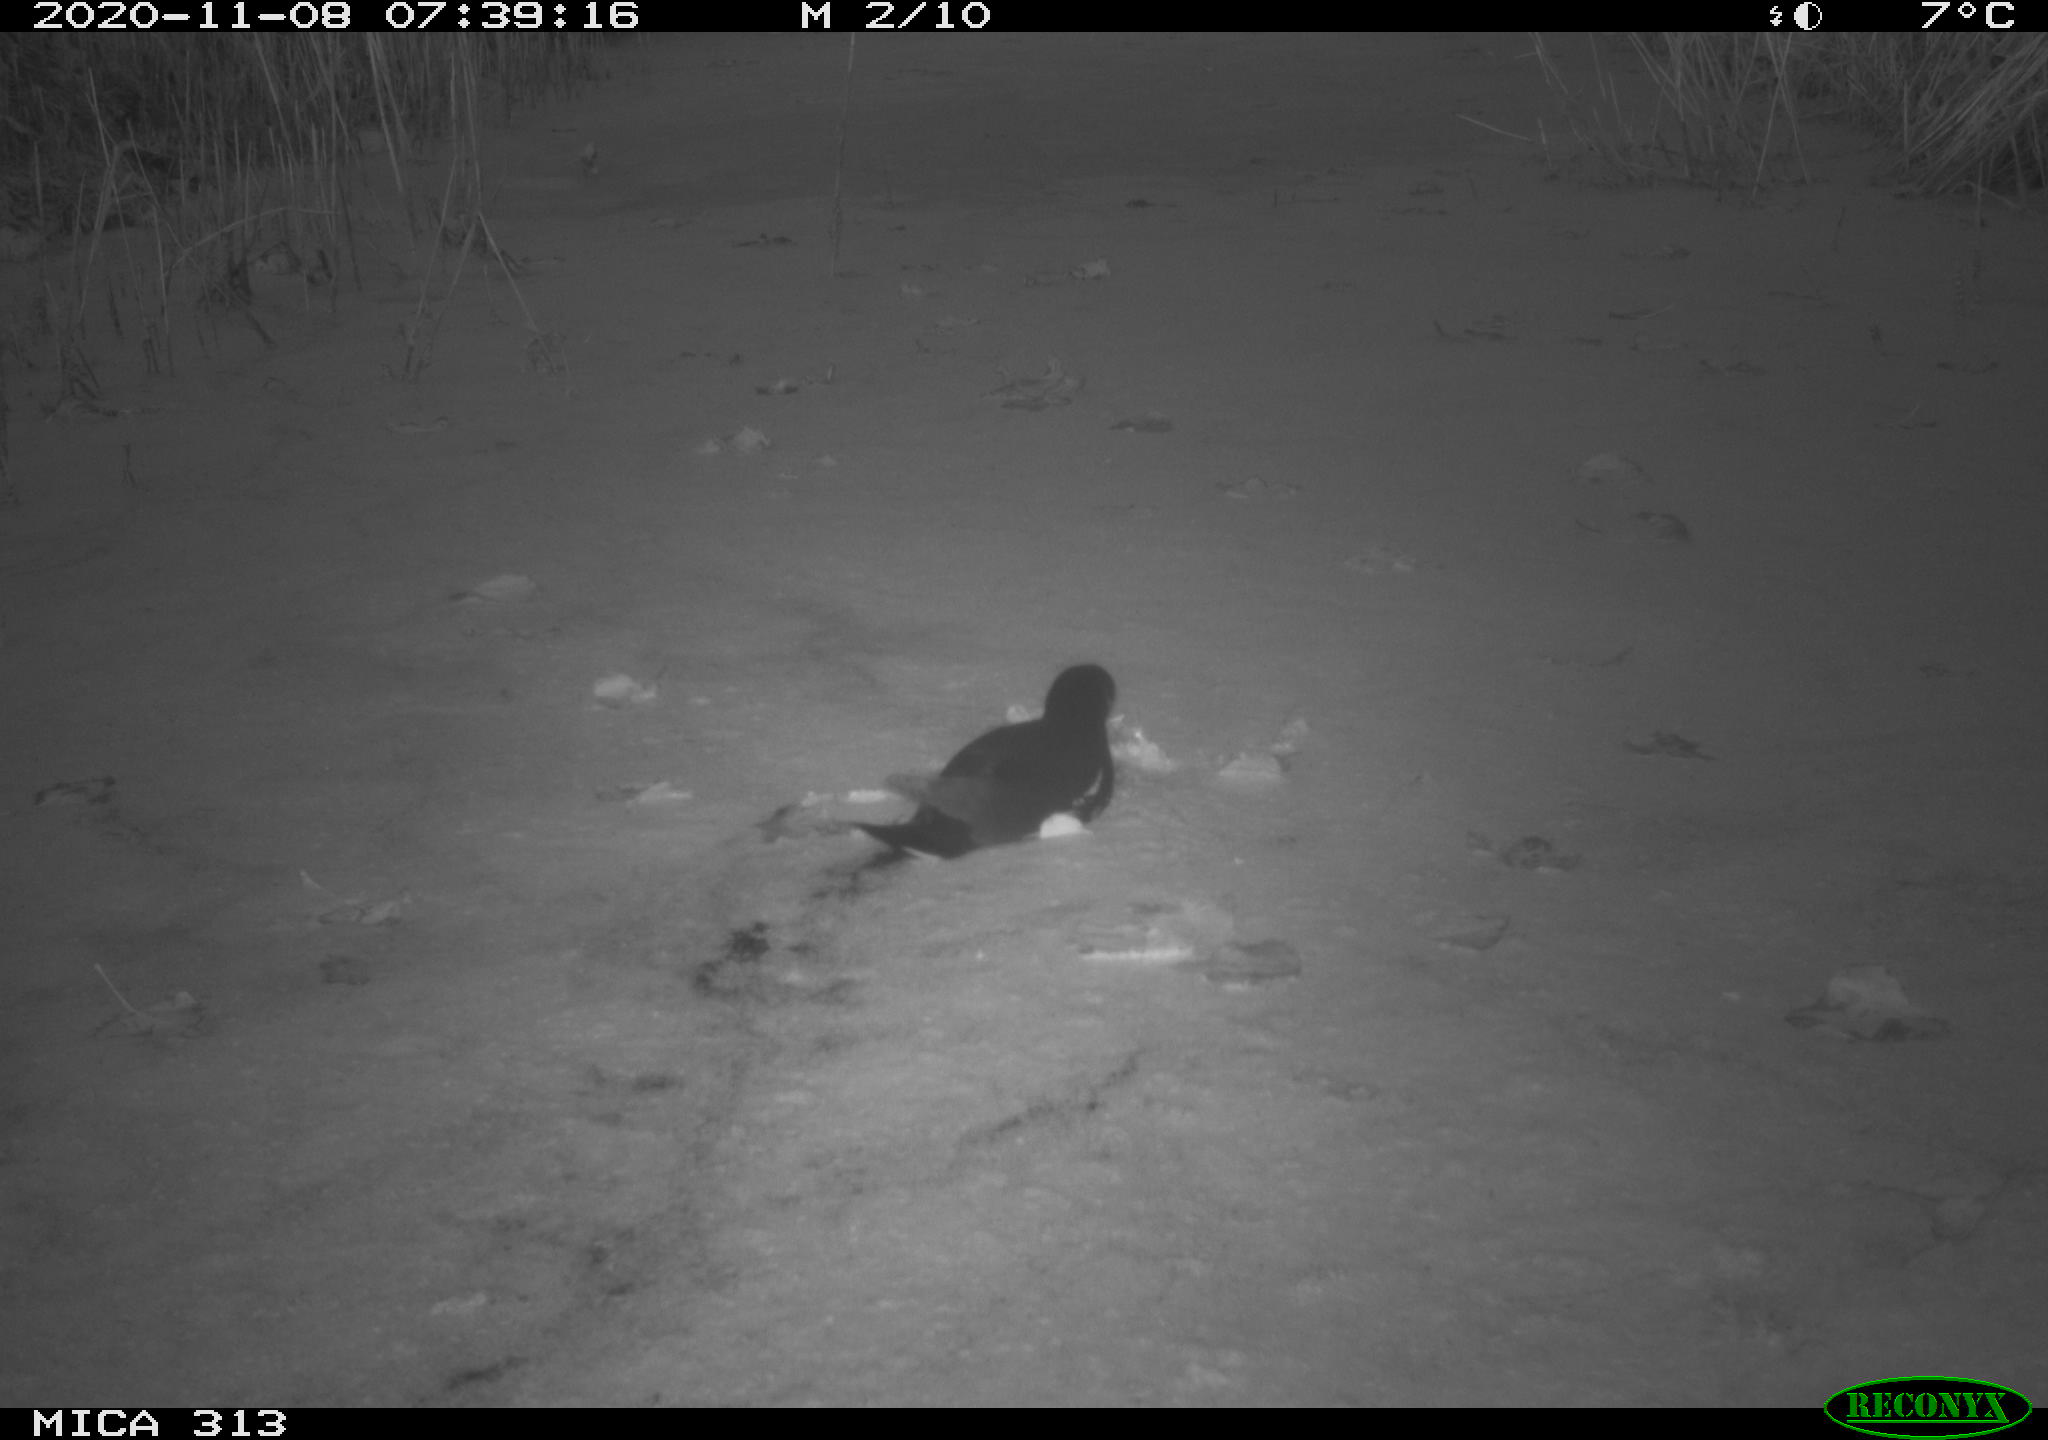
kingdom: Animalia
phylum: Chordata
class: Aves
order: Gruiformes
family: Rallidae
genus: Gallinula
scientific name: Gallinula chloropus
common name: Common moorhen
